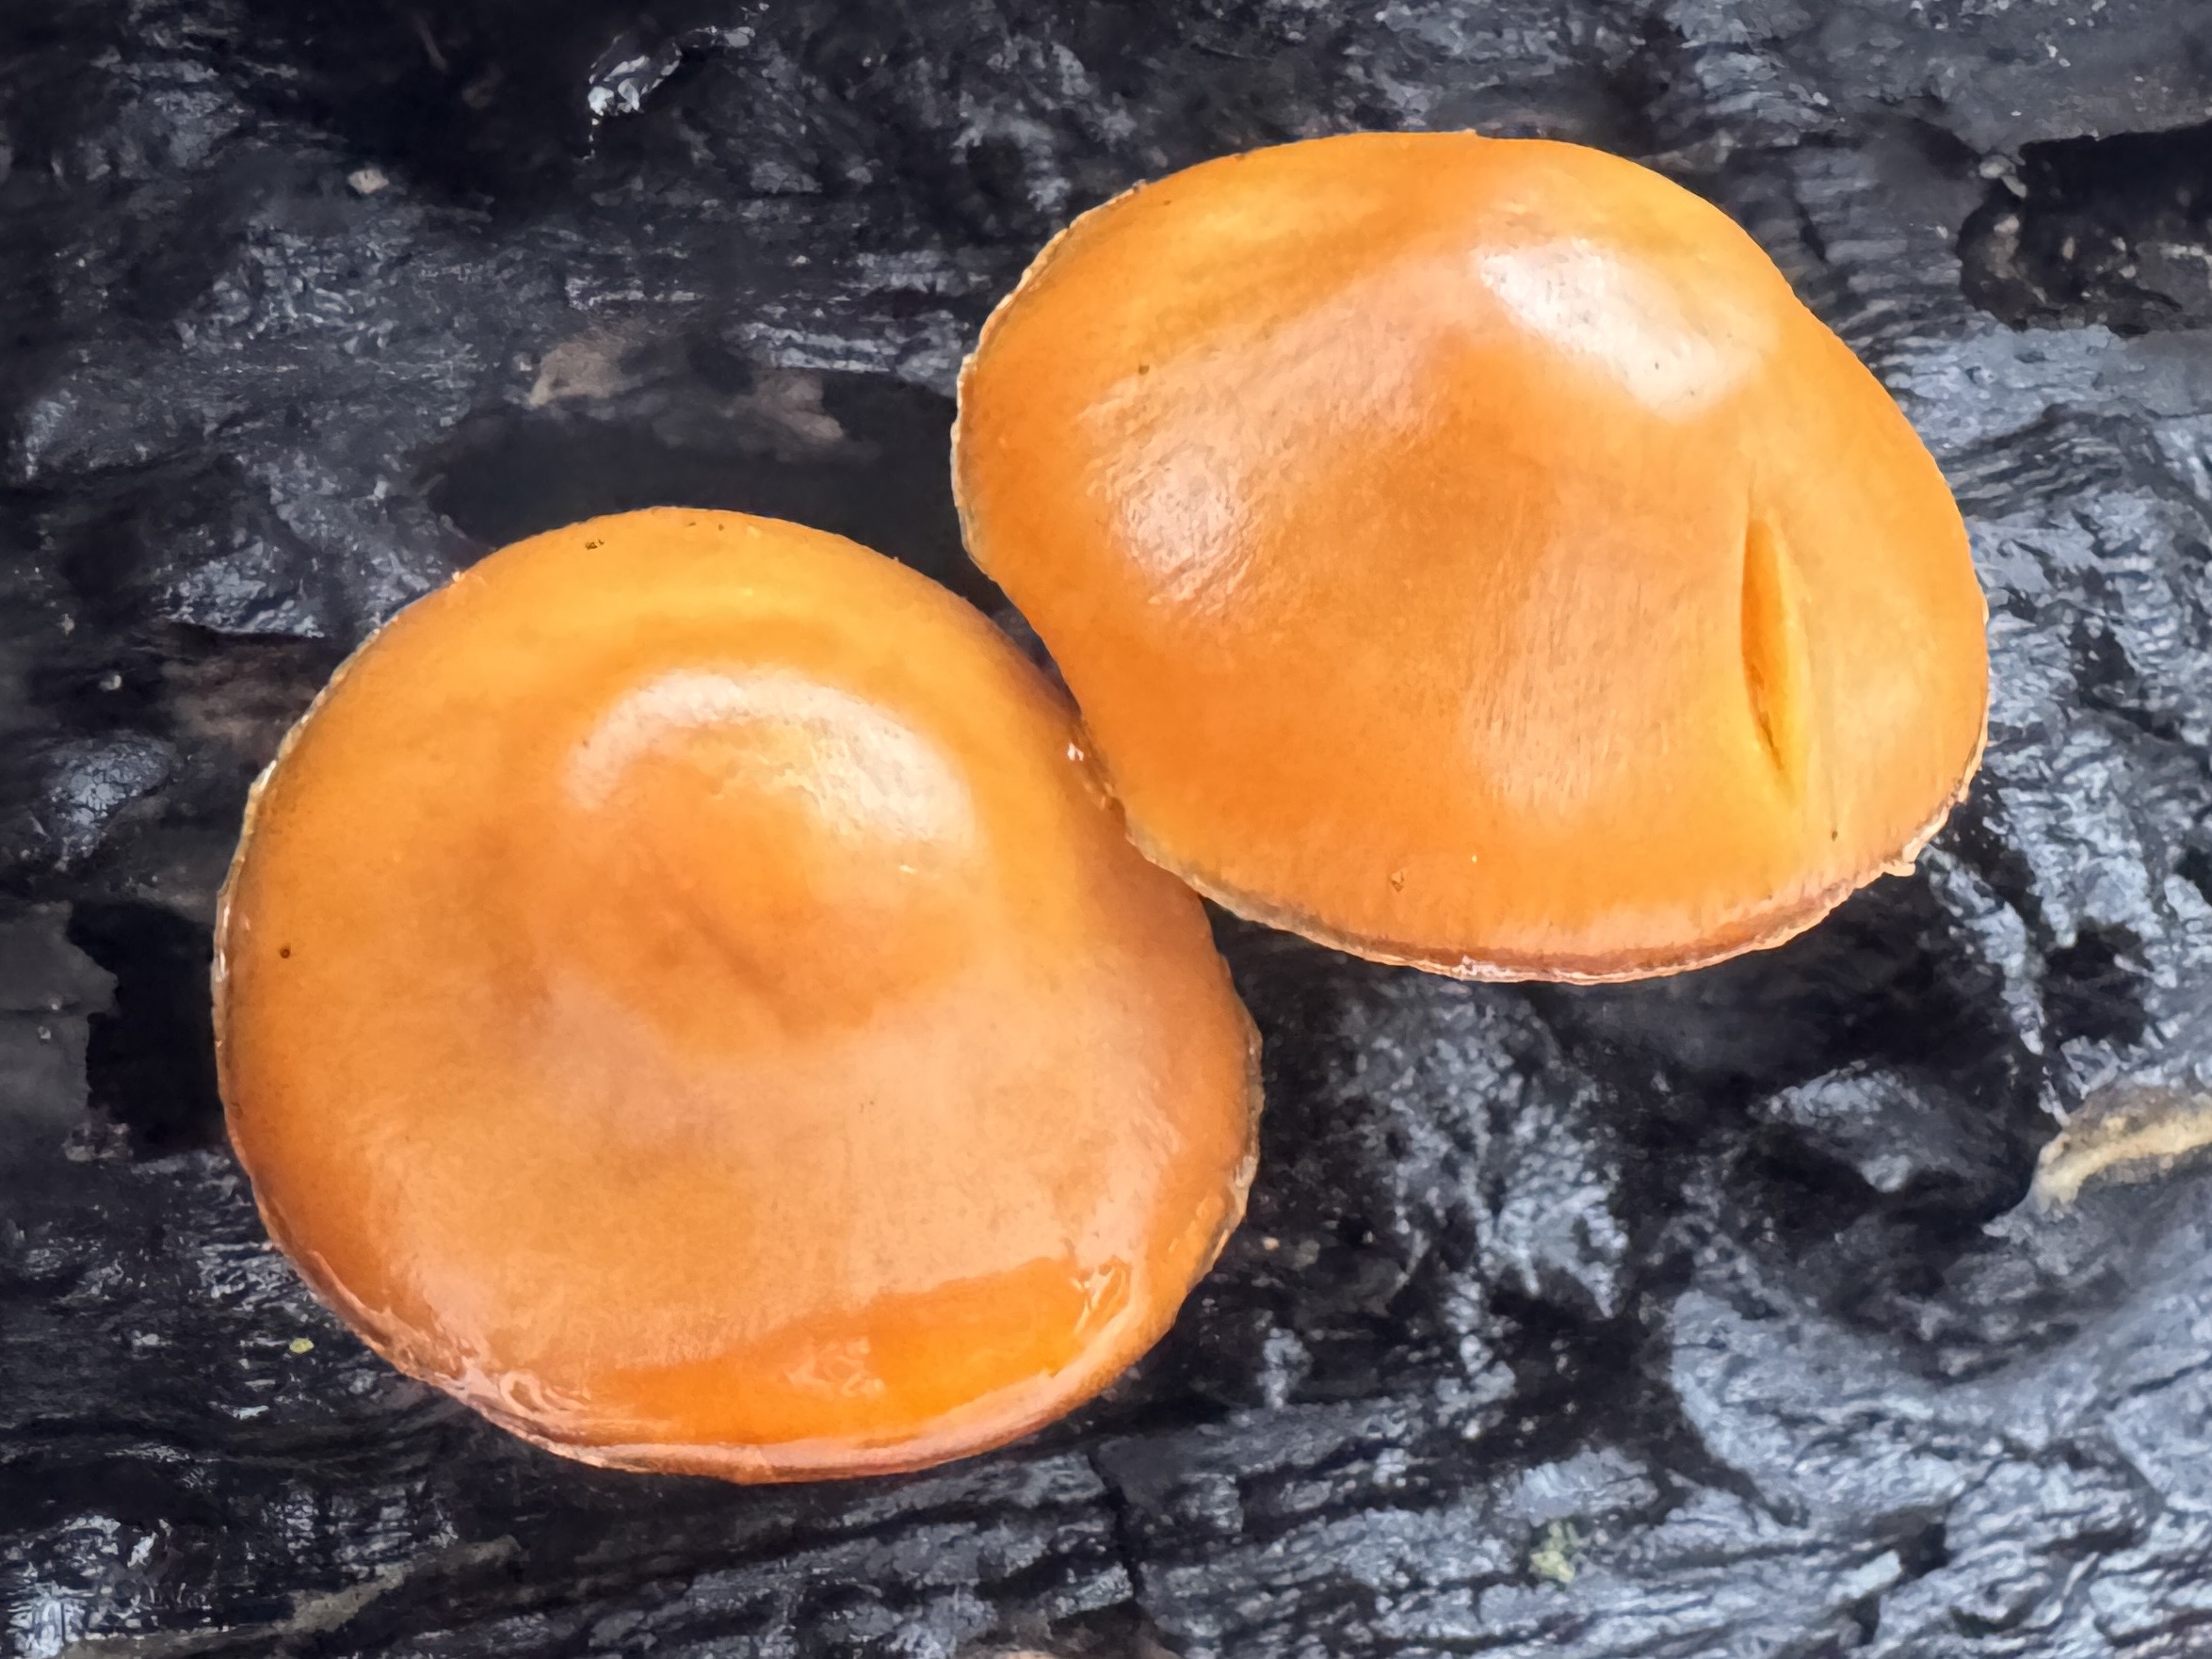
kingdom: Fungi
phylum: Basidiomycota
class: Agaricomycetes
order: Agaricales
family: Hymenogastraceae
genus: Galerina
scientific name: Galerina marginata
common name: randbæltet hjelmhat
